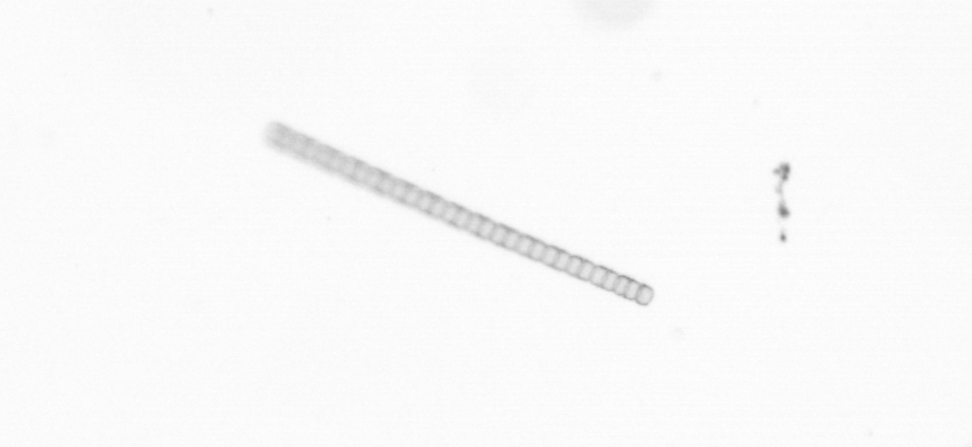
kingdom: Chromista
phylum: Ochrophyta
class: Bacillariophyceae
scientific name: Bacillariophyceae
